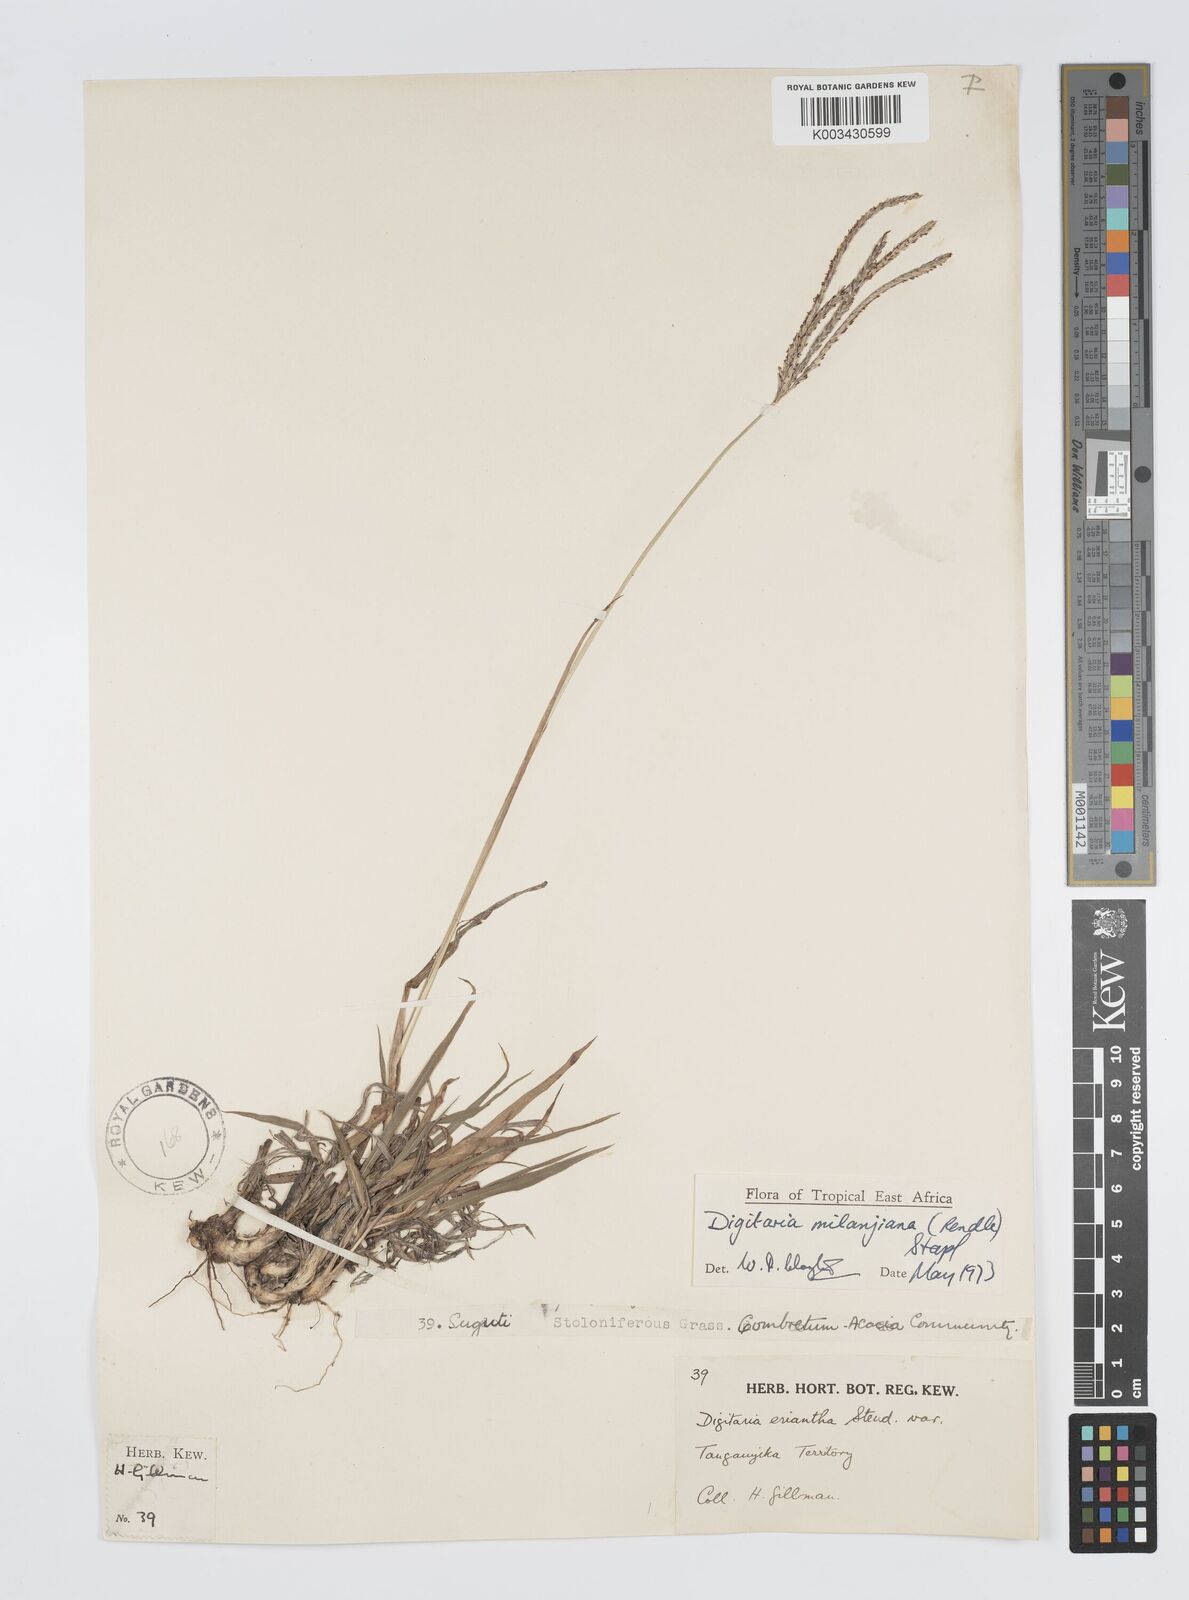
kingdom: Plantae
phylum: Tracheophyta
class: Liliopsida
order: Poales
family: Poaceae
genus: Digitaria
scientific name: Digitaria milanjiana
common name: Madagascar crabgrass
